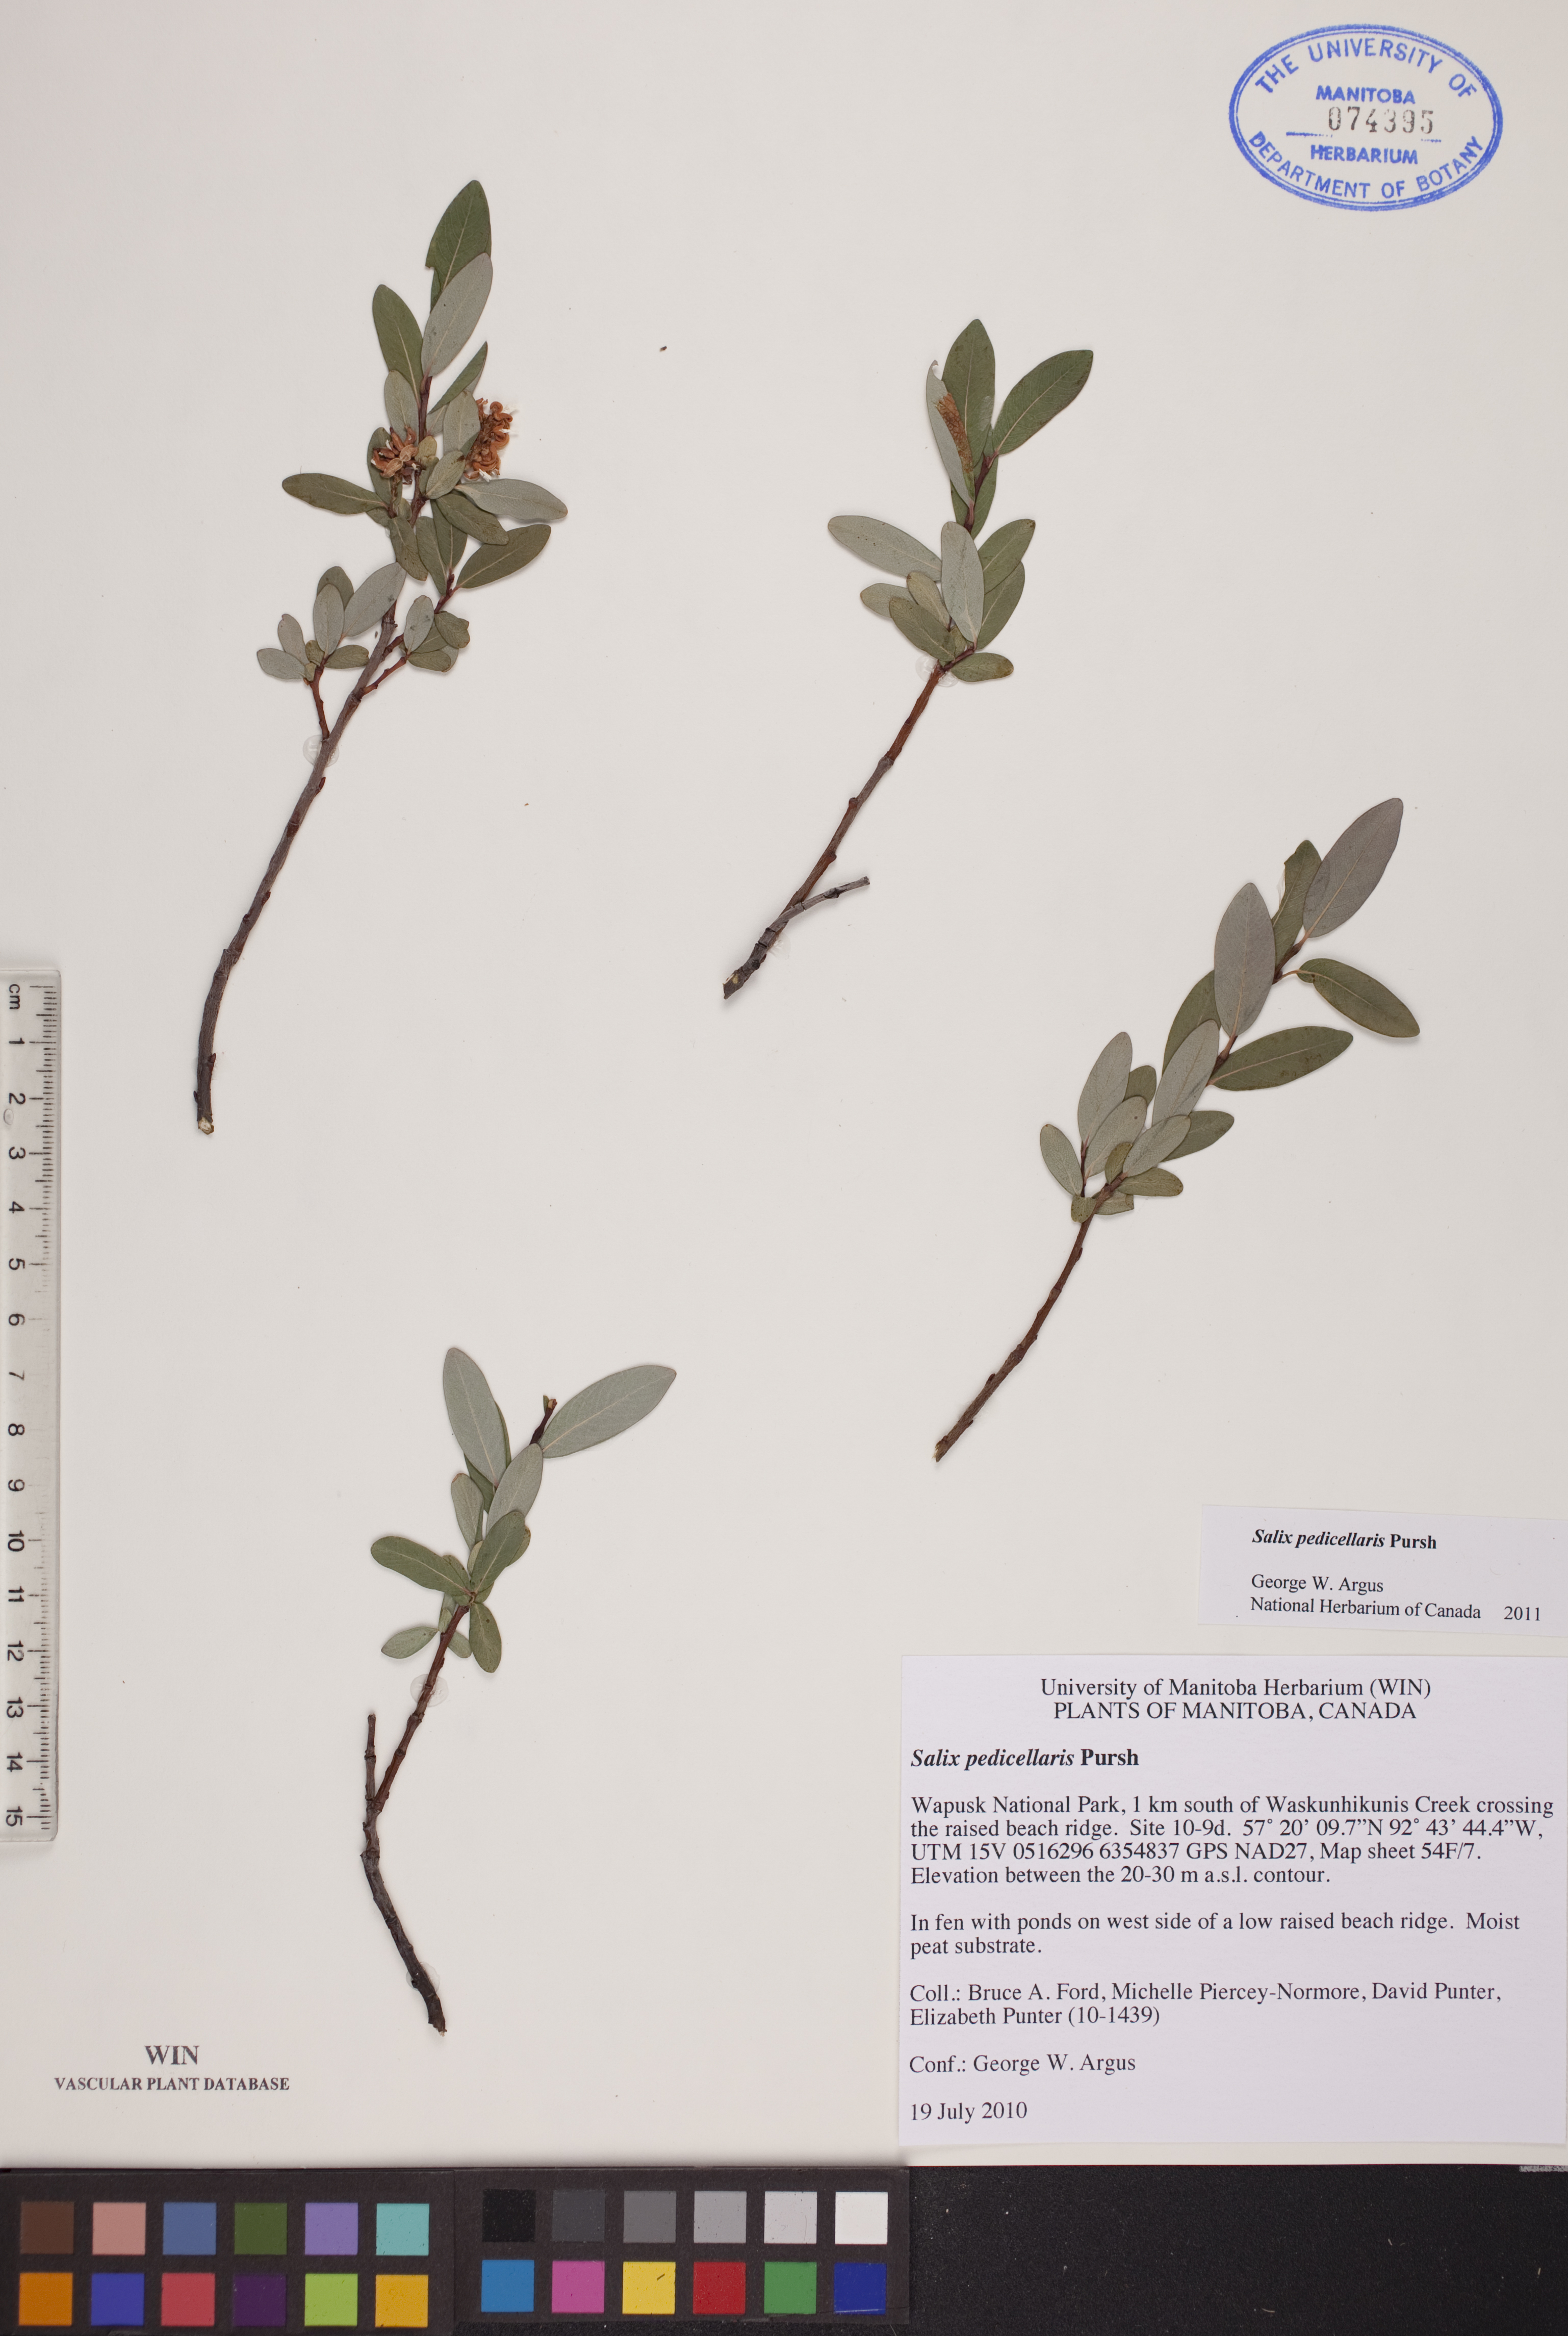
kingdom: Plantae
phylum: Tracheophyta
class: Magnoliopsida
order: Malpighiales
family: Salicaceae
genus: Salix
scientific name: Salix pedicellaris
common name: Bog willow
